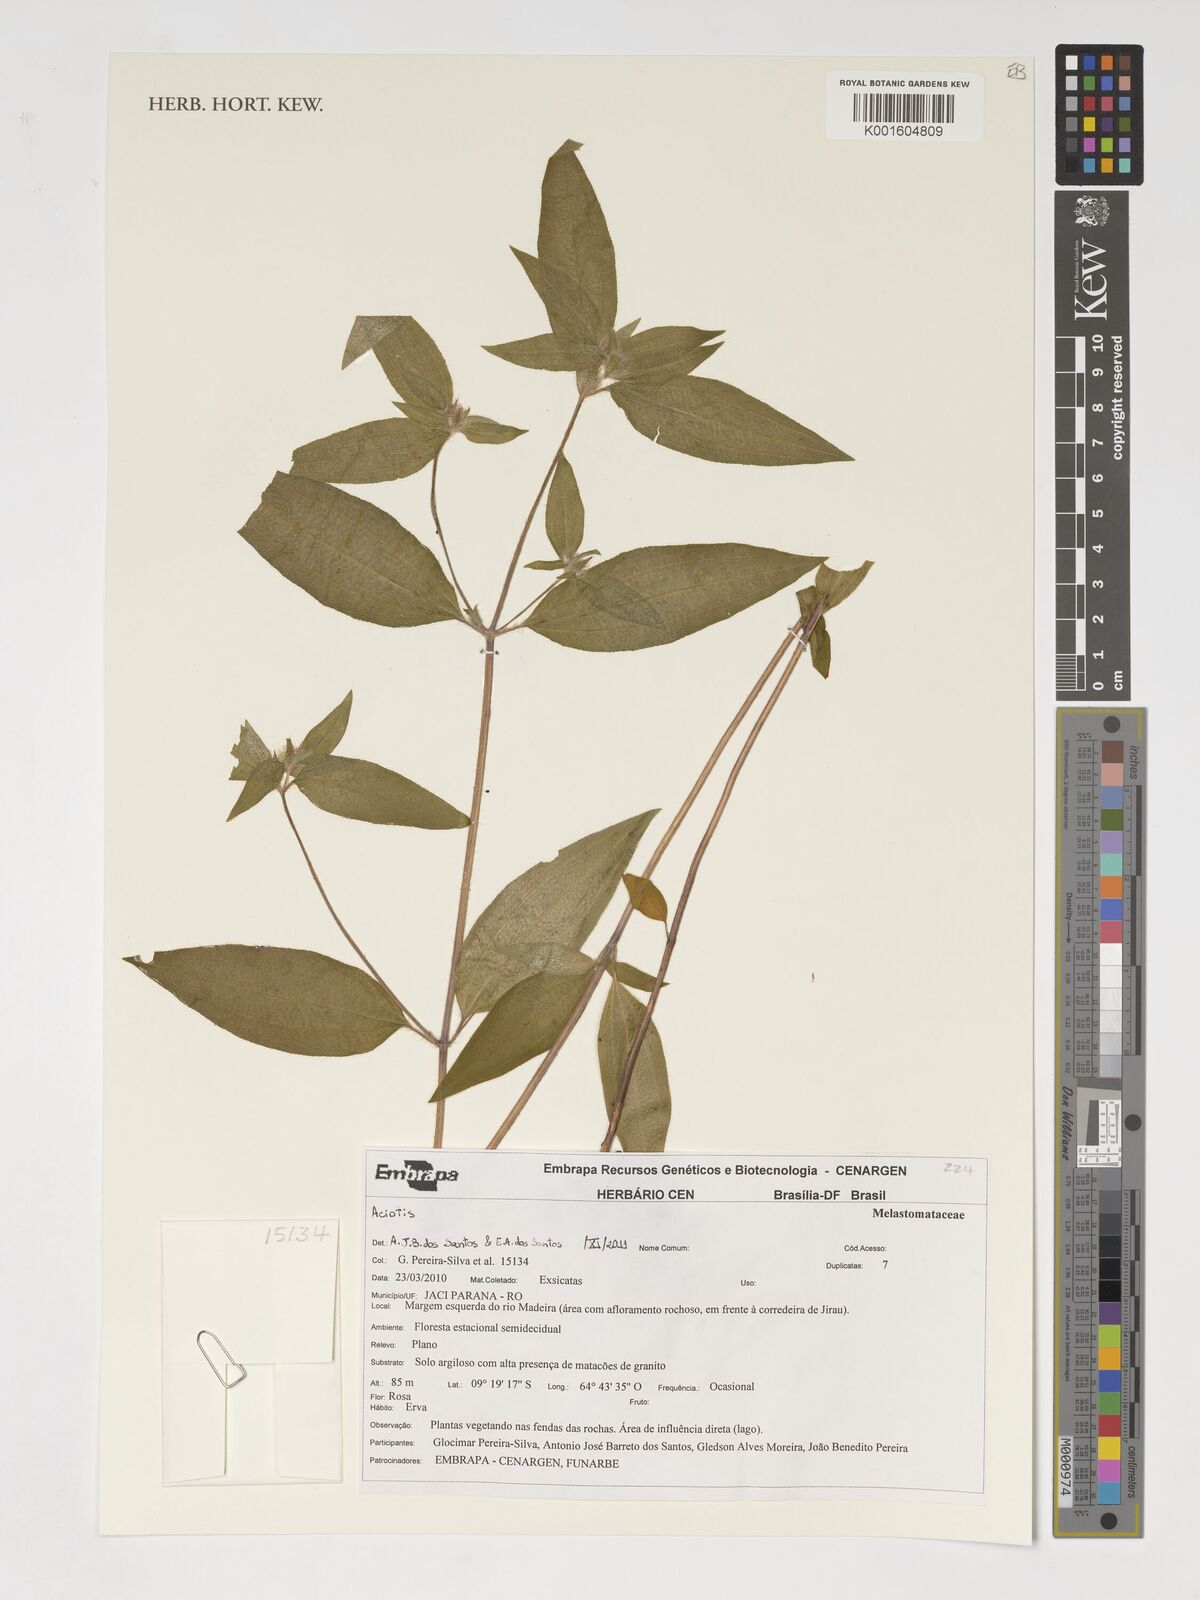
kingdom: Plantae
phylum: Tracheophyta
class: Magnoliopsida
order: Myrtales
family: Melastomataceae
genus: Aciotis
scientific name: Aciotis
